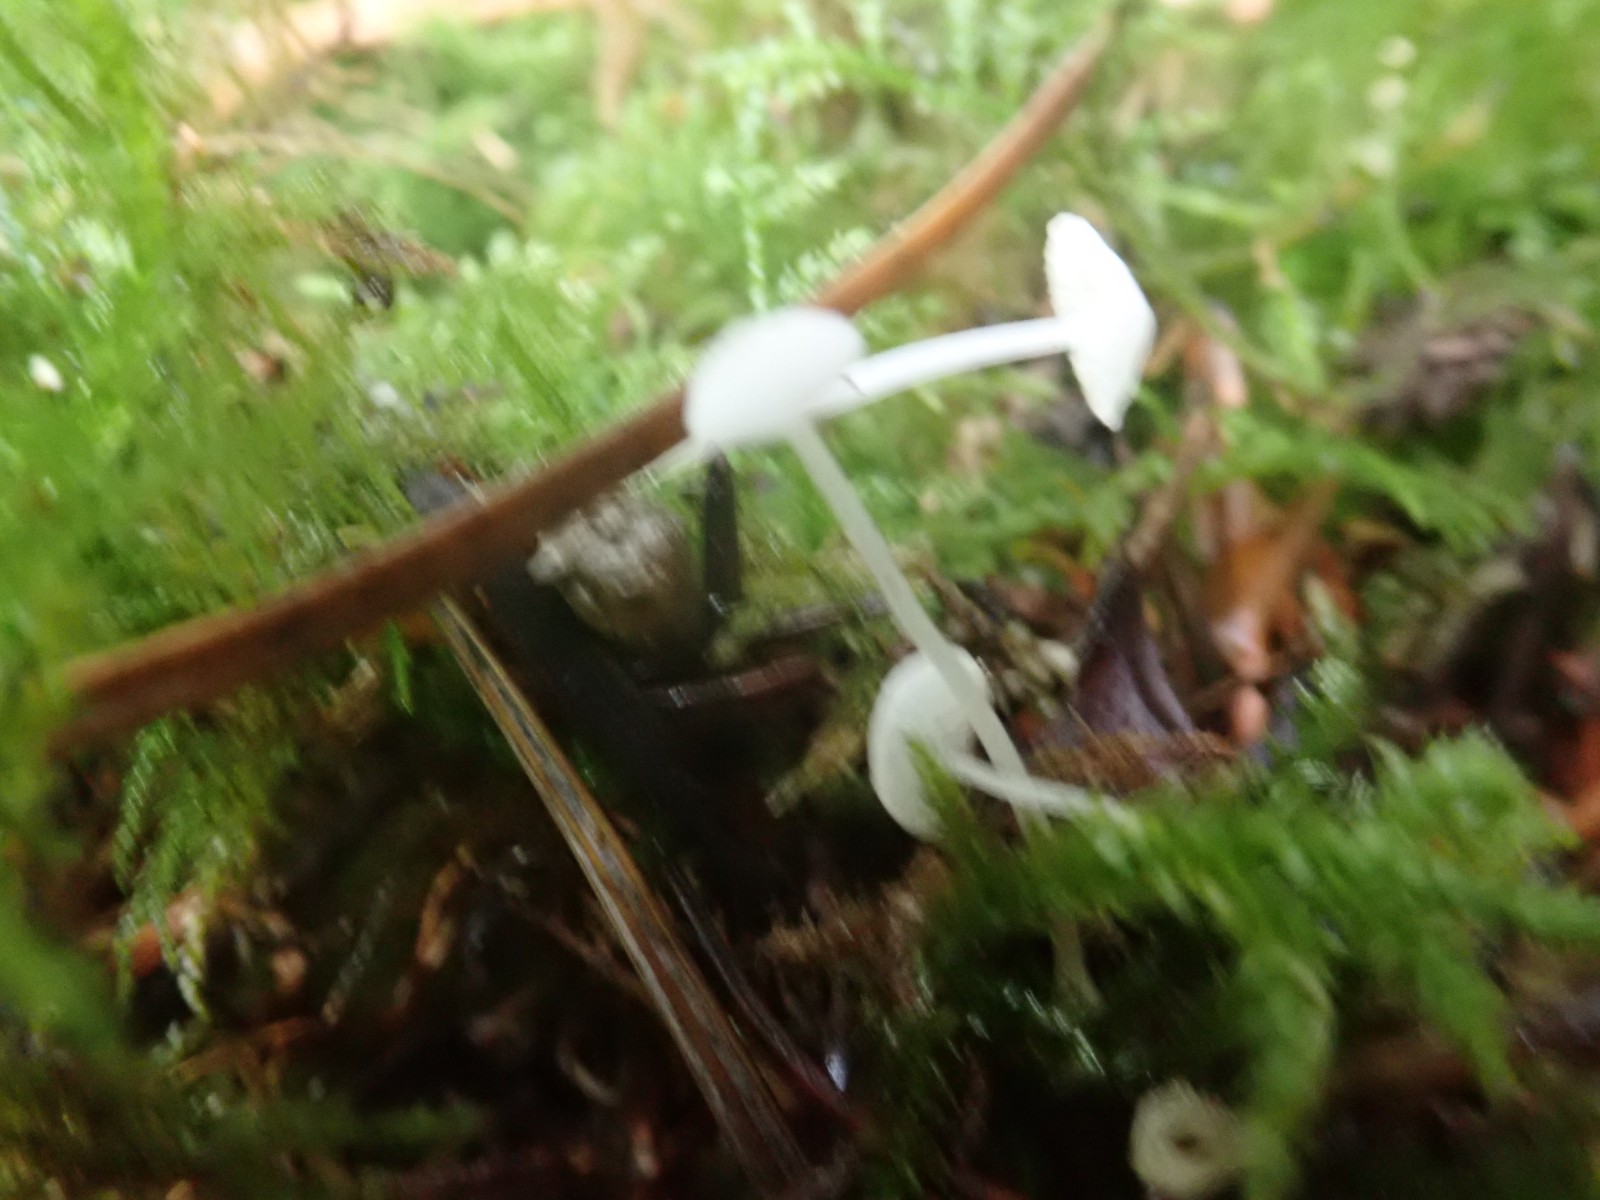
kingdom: Fungi
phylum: Basidiomycota
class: Agaricomycetes
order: Agaricales
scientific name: Agaricales
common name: champignonordenen
